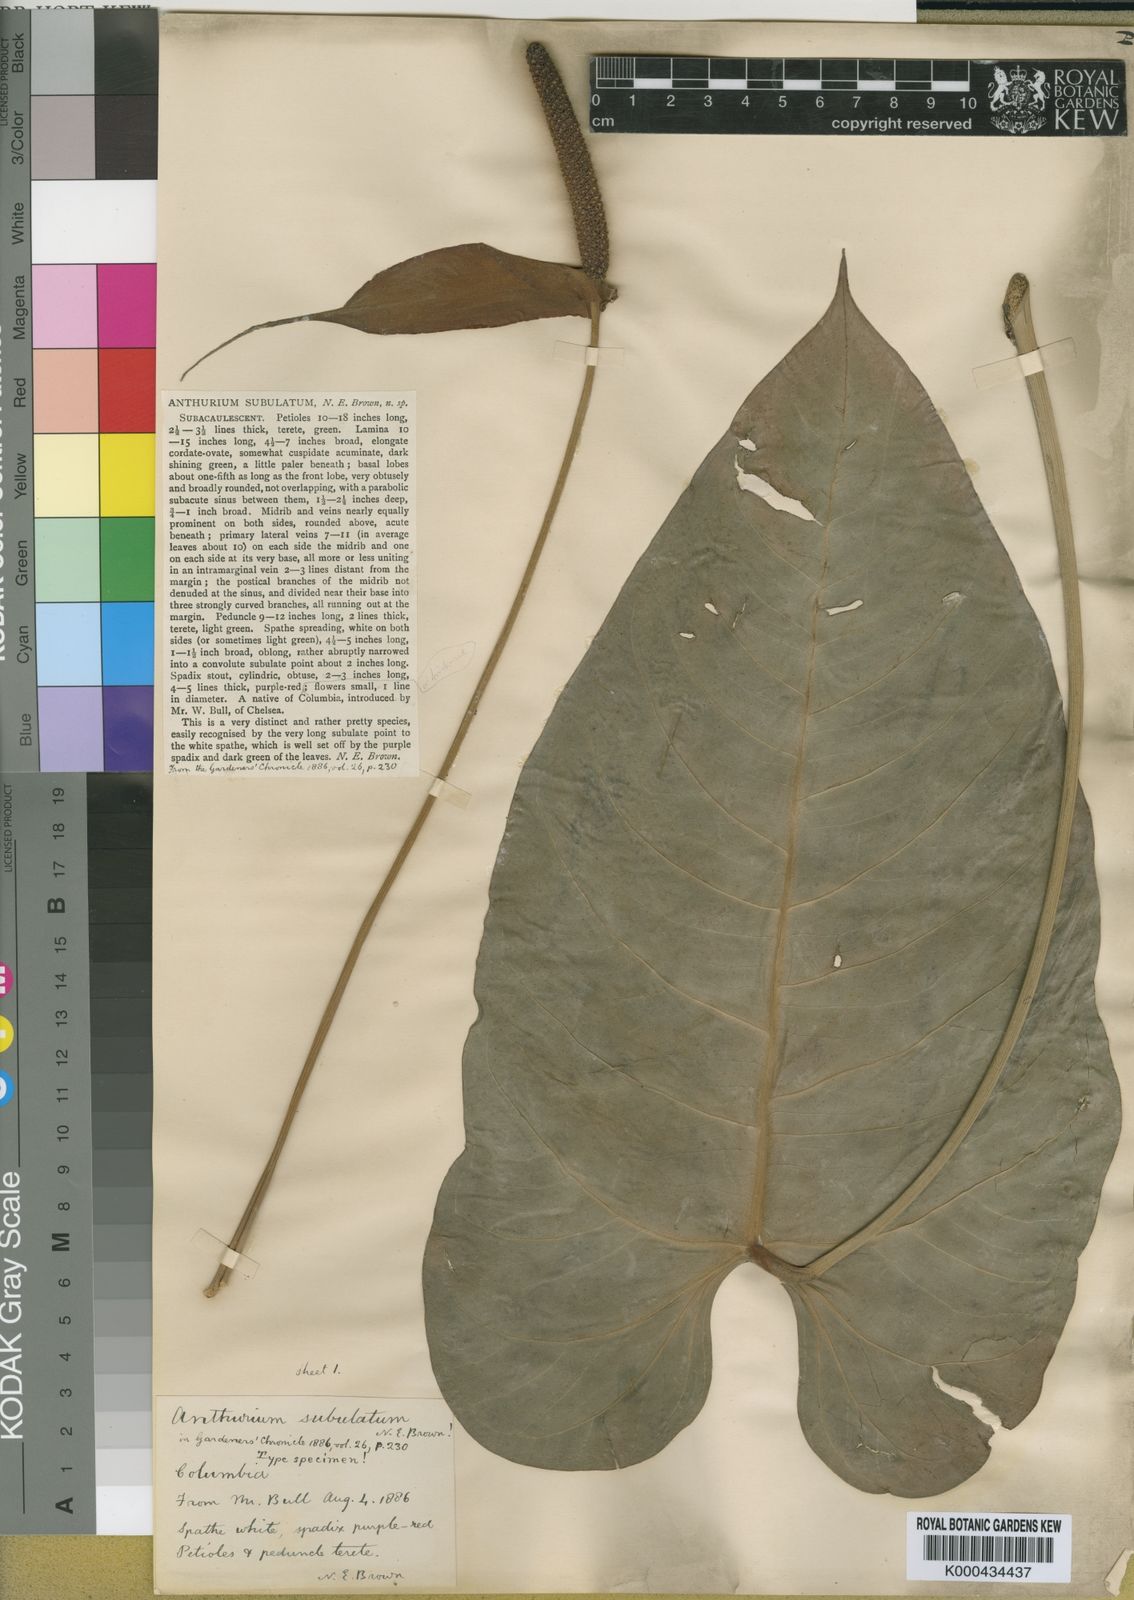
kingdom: Plantae
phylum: Tracheophyta
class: Liliopsida
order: Alismatales
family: Araceae
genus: Anthurium
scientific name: Anthurium subulatum
